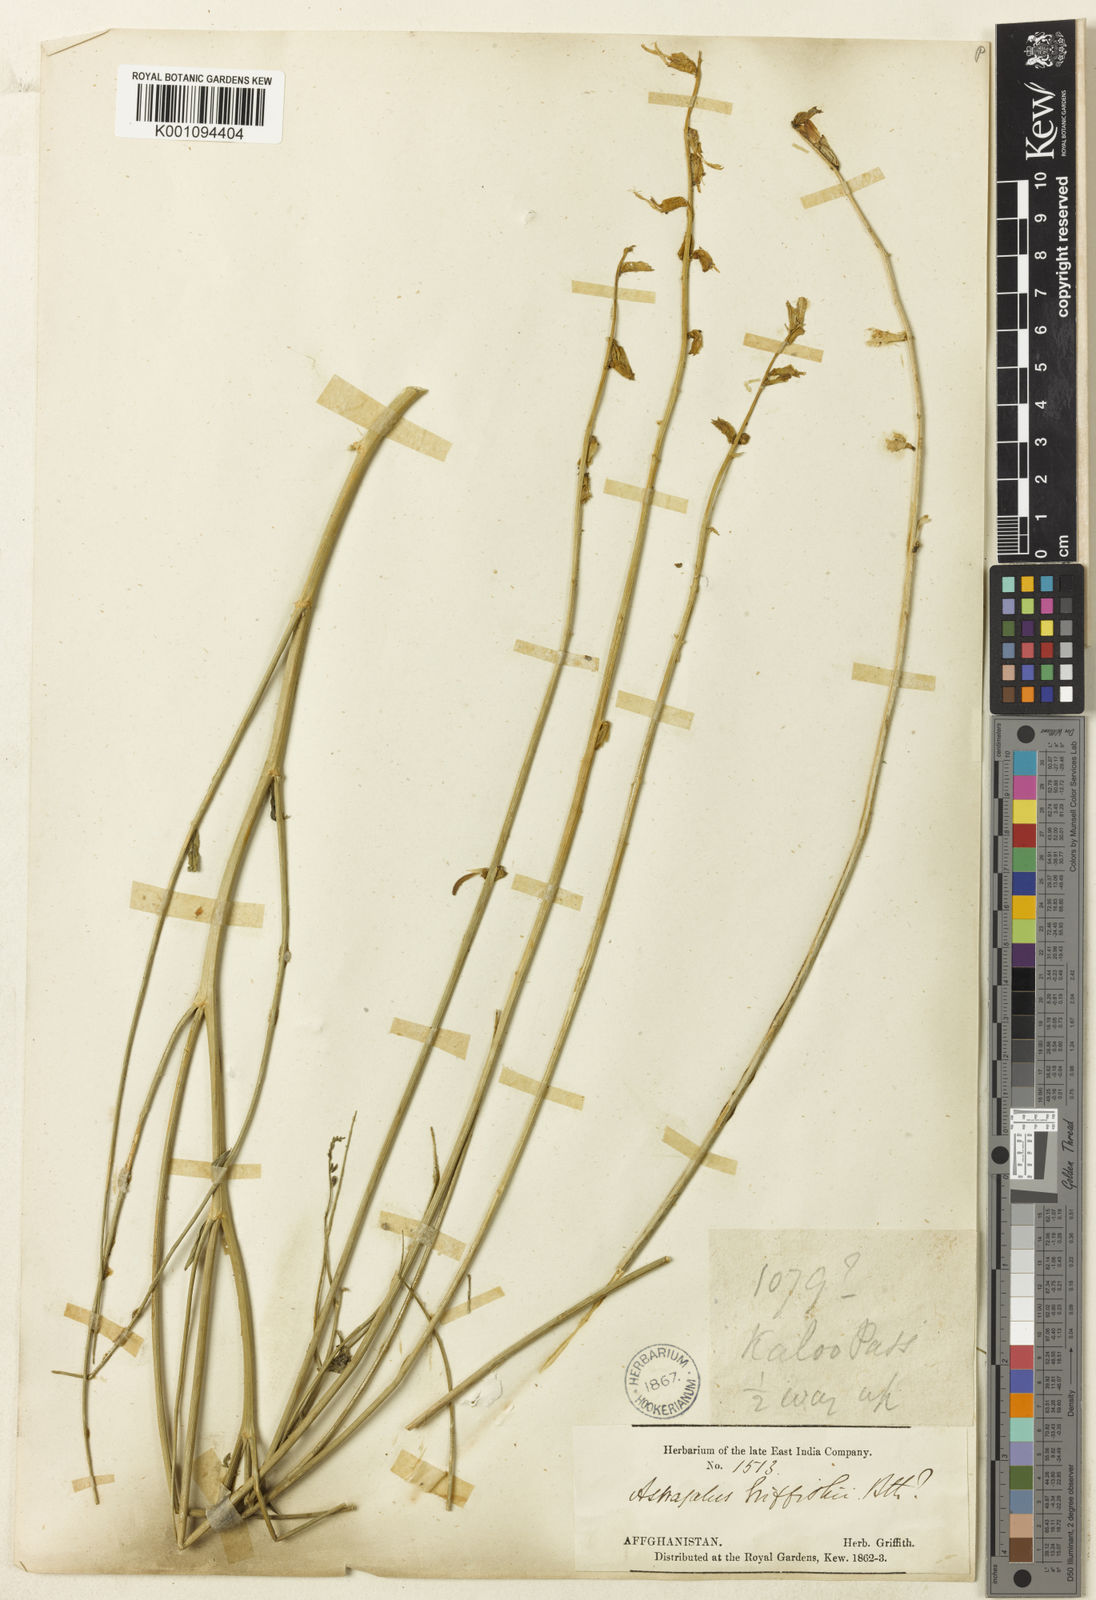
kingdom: Plantae
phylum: Tracheophyta
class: Magnoliopsida
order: Fabales
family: Fabaceae
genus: Astragalus
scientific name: Astragalus
